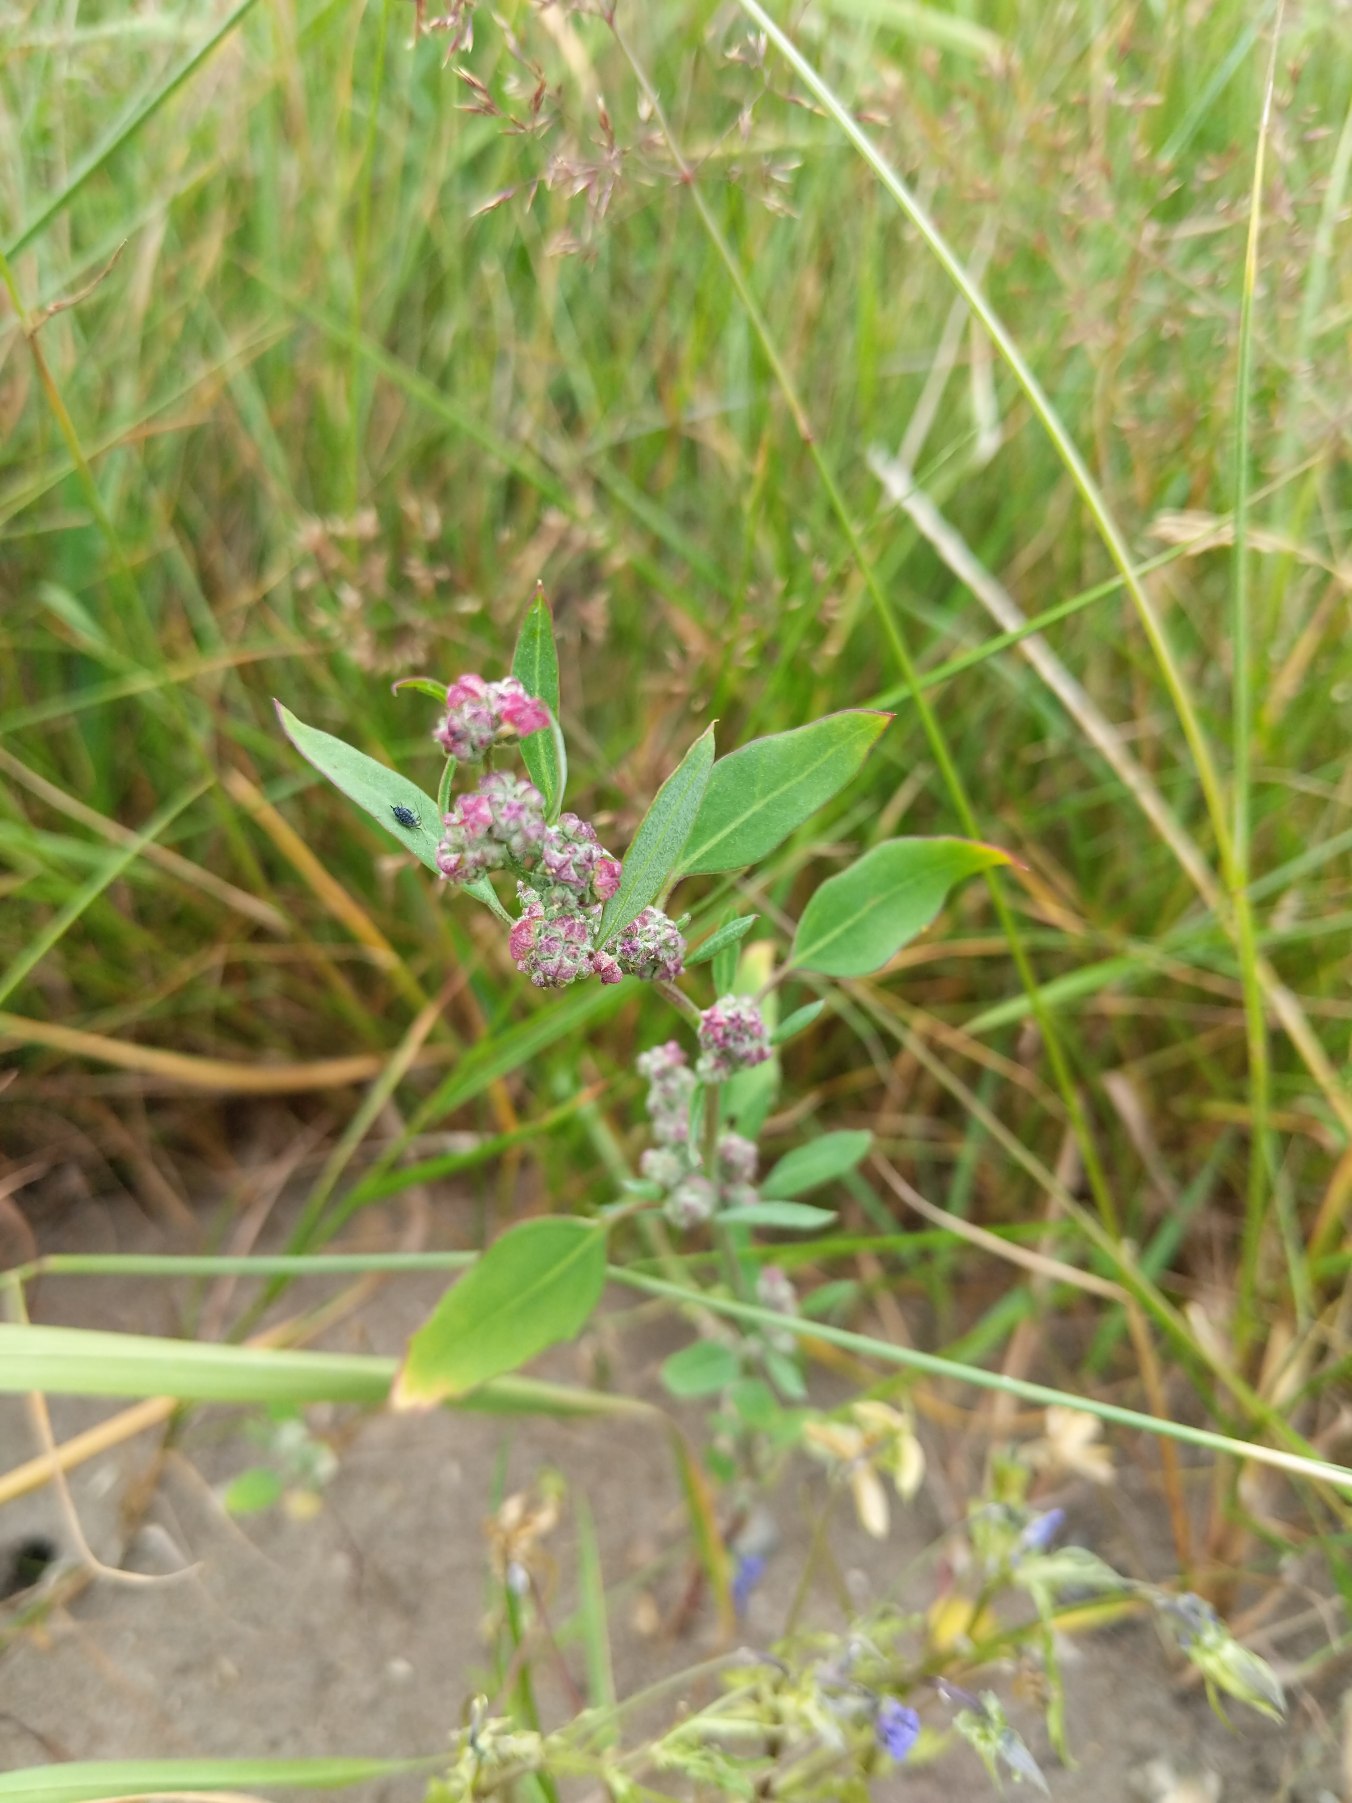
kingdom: Plantae
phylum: Tracheophyta
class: Magnoliopsida
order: Caryophyllales
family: Amaranthaceae
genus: Chenopodium
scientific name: Chenopodium album
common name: Hvidmelet gåsefod
